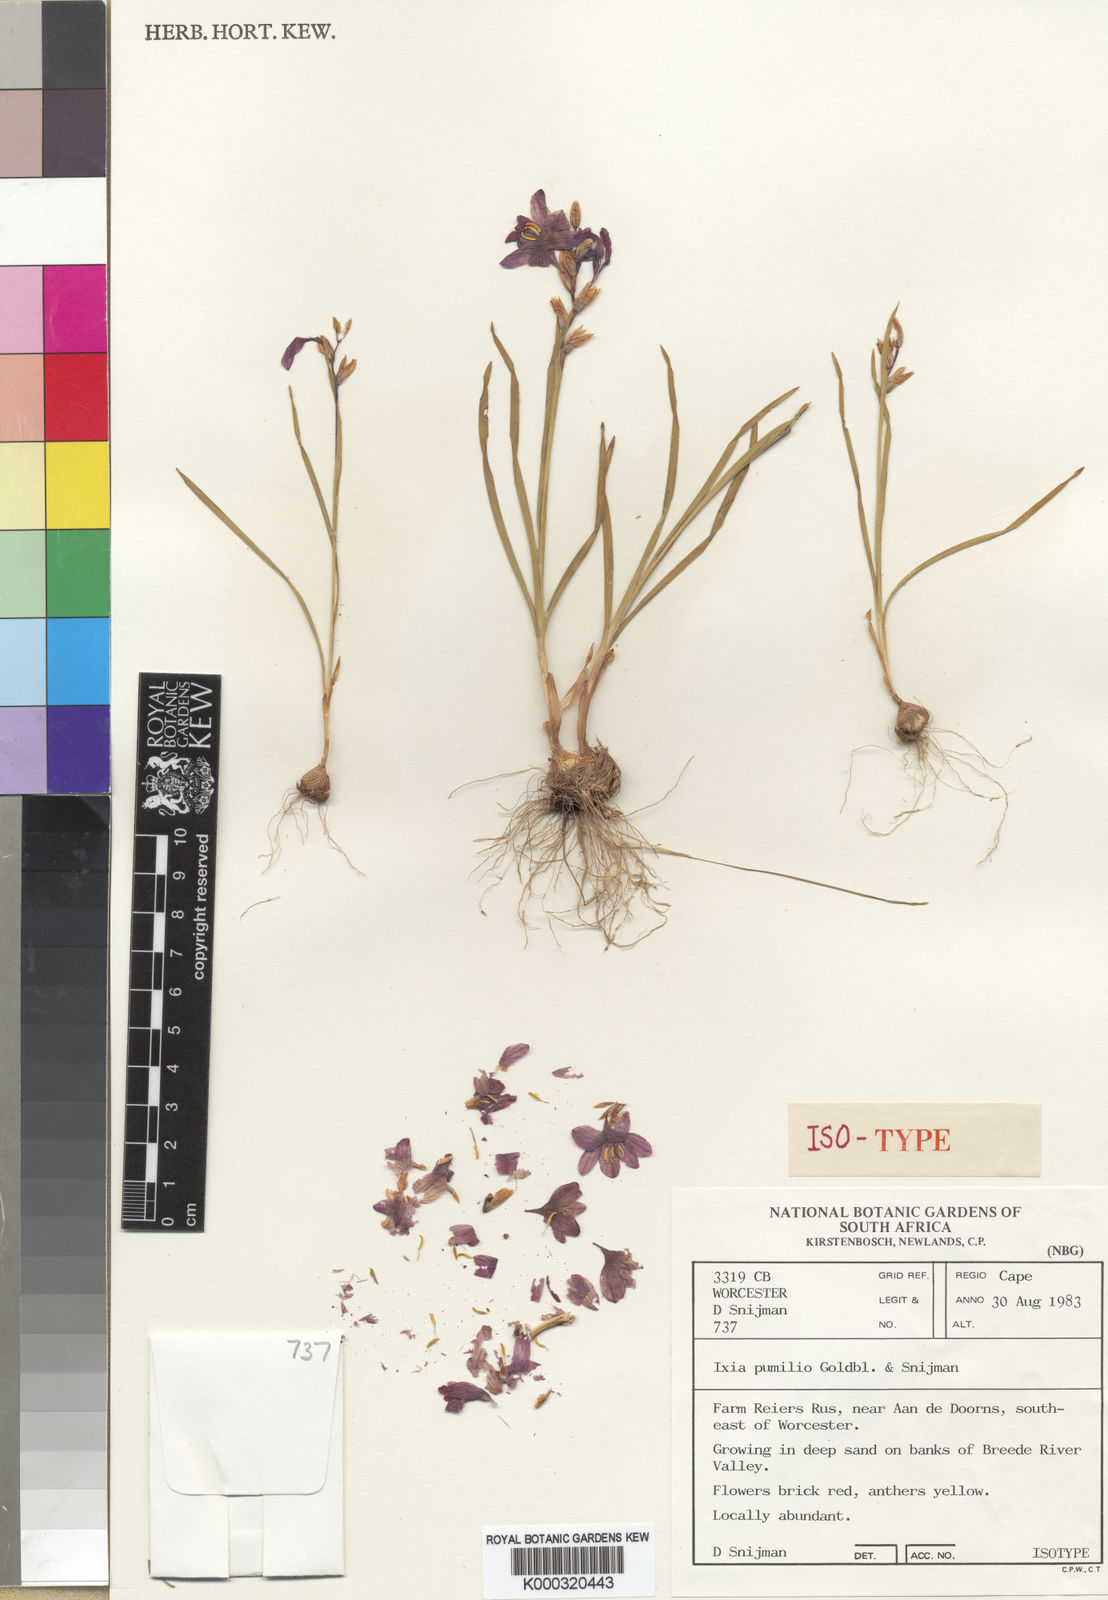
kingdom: Plantae
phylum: Tracheophyta
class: Liliopsida
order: Asparagales
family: Iridaceae
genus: Ixia
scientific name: Ixia pumilio
